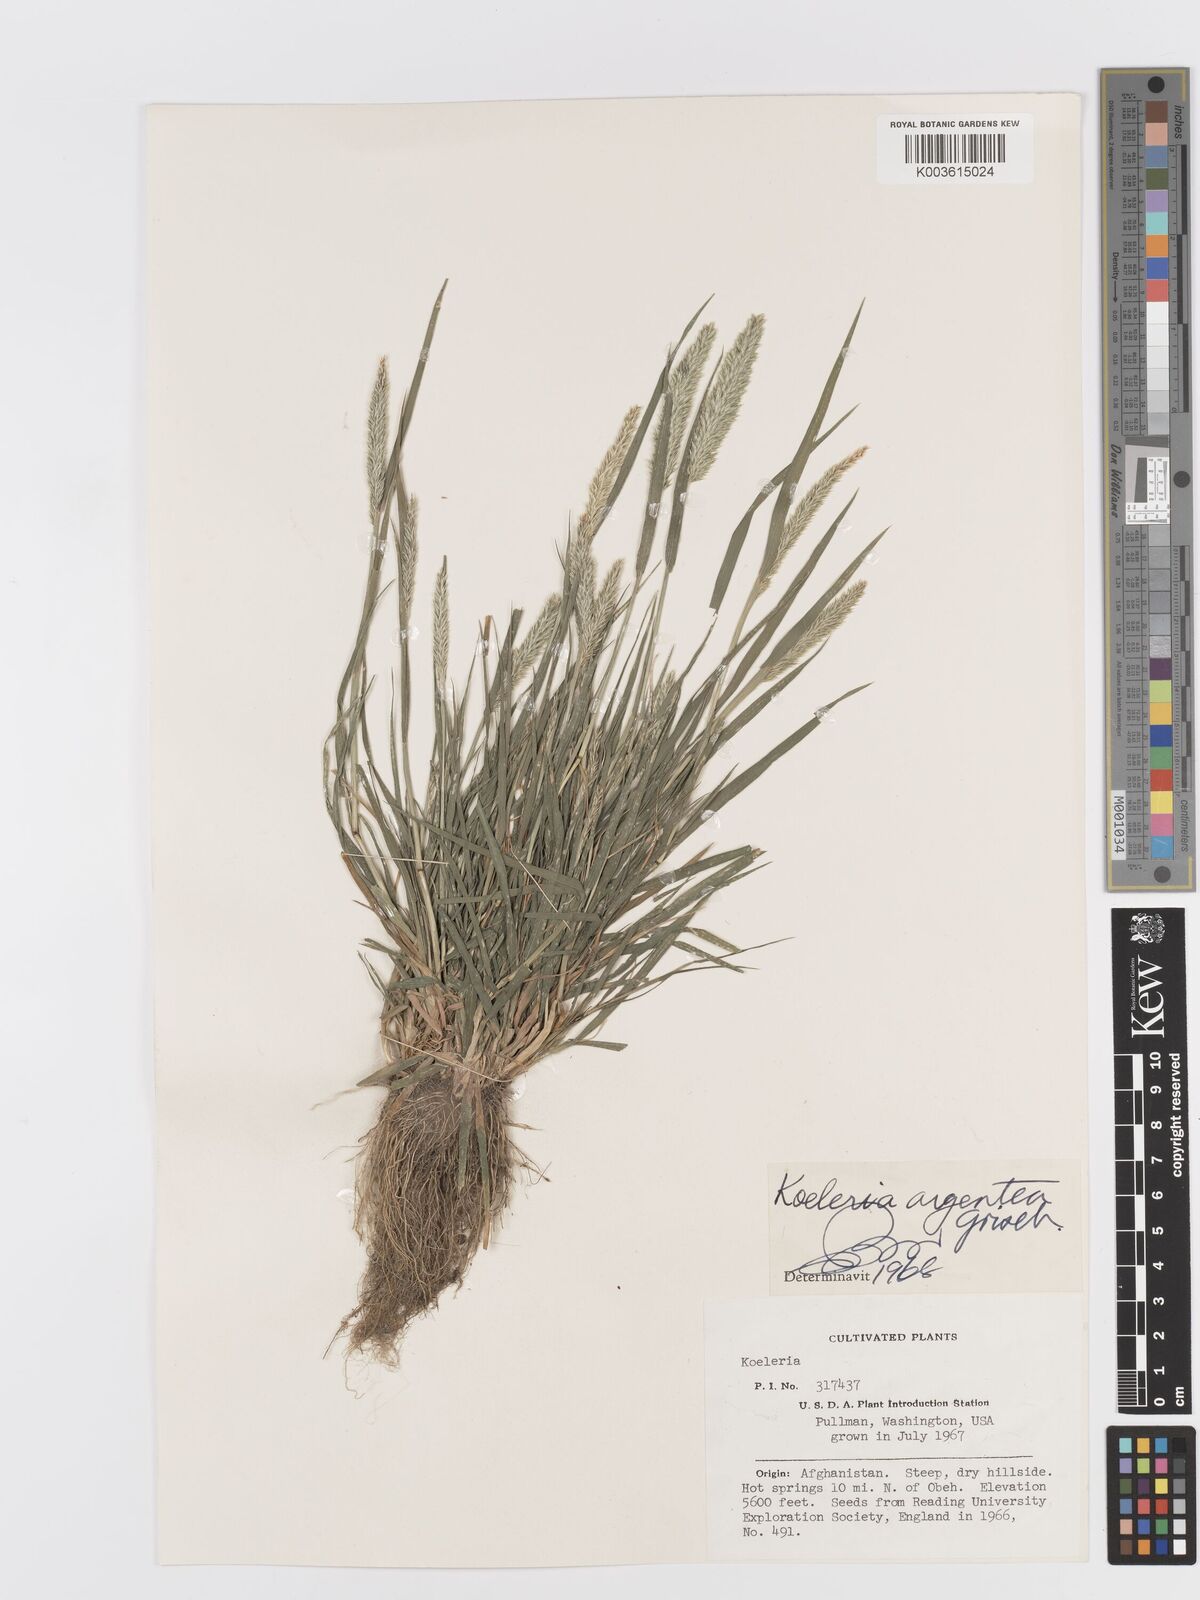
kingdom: Plantae
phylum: Tracheophyta
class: Liliopsida
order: Poales
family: Poaceae
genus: Koeleria
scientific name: Koeleria argentea
